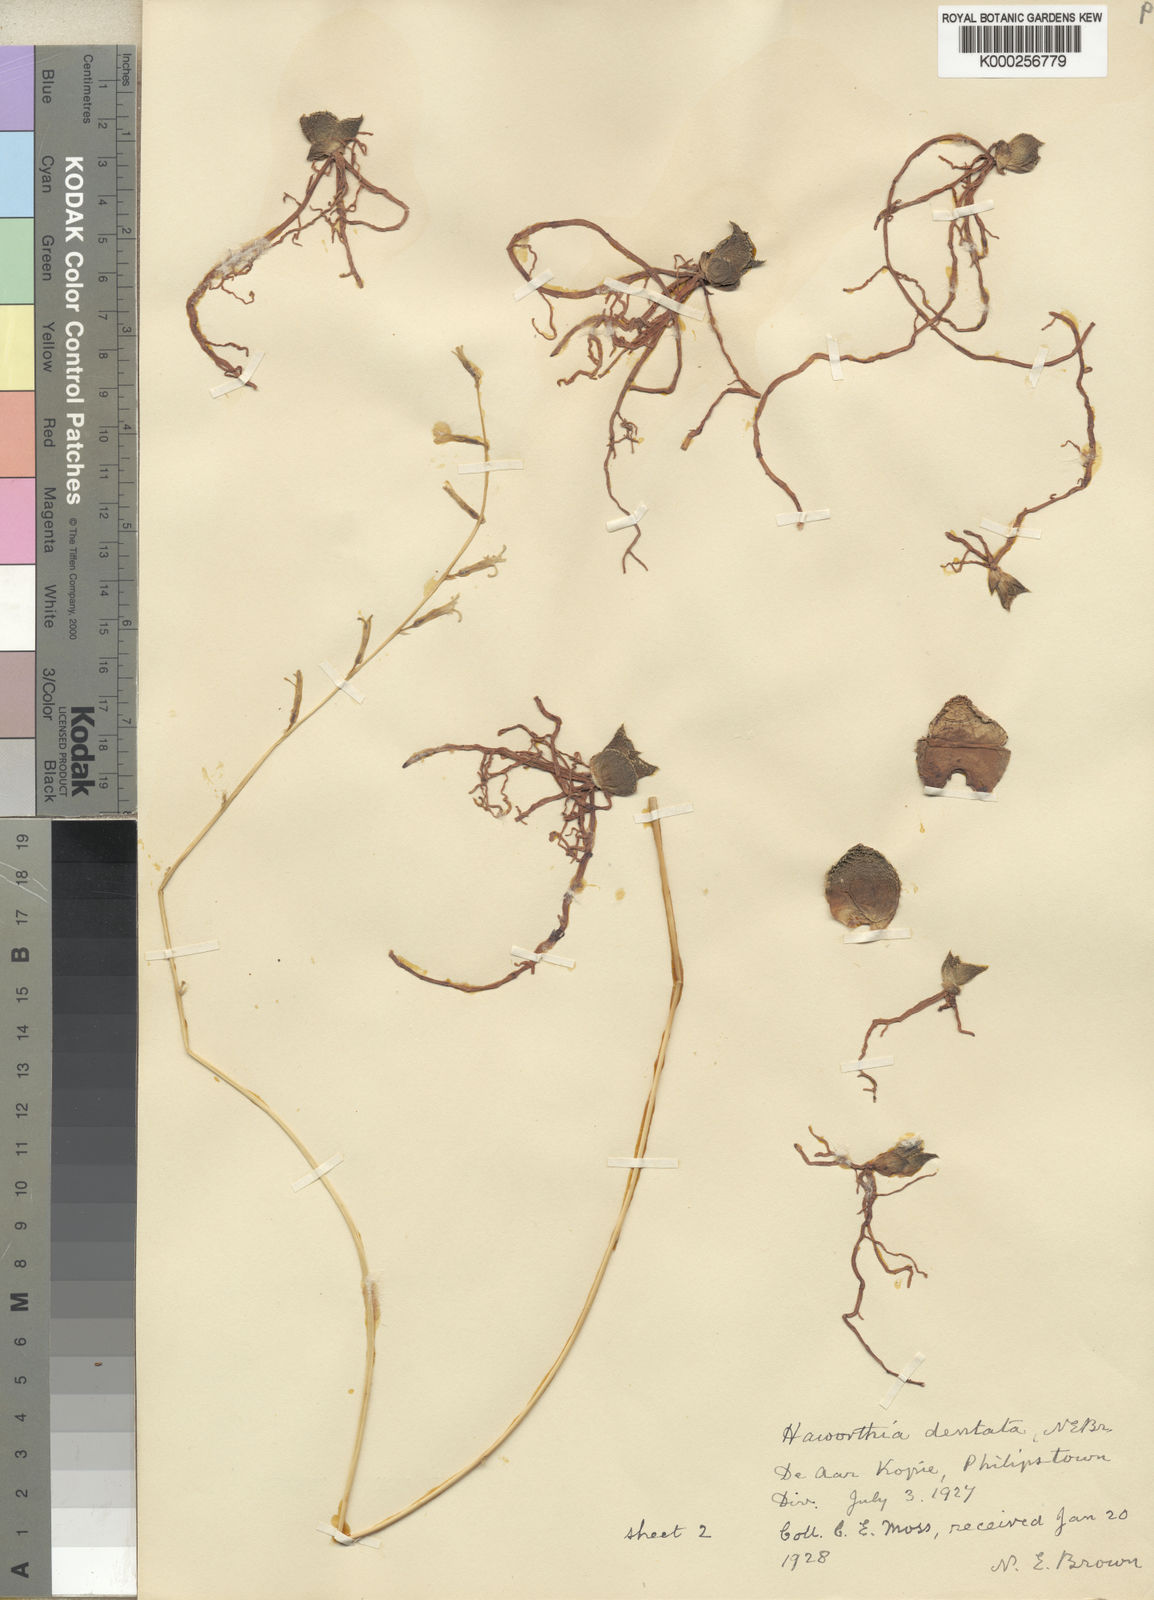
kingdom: Plantae
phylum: Tracheophyta
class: Liliopsida
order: Asparagales
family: Asphodelaceae
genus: Haworthia
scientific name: Haworthia floribunda
